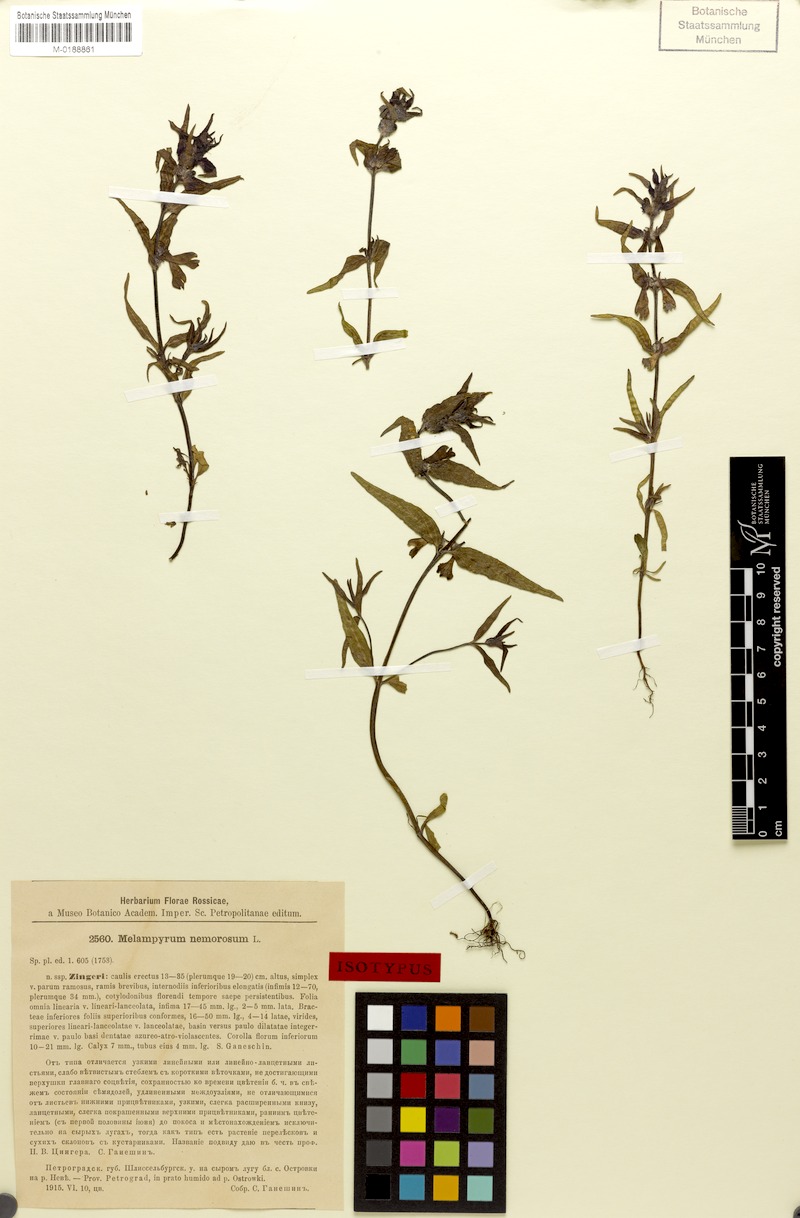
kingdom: Plantae
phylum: Tracheophyta
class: Magnoliopsida
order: Lamiales
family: Orobanchaceae
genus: Melampyrum
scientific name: Melampyrum nemorosum
